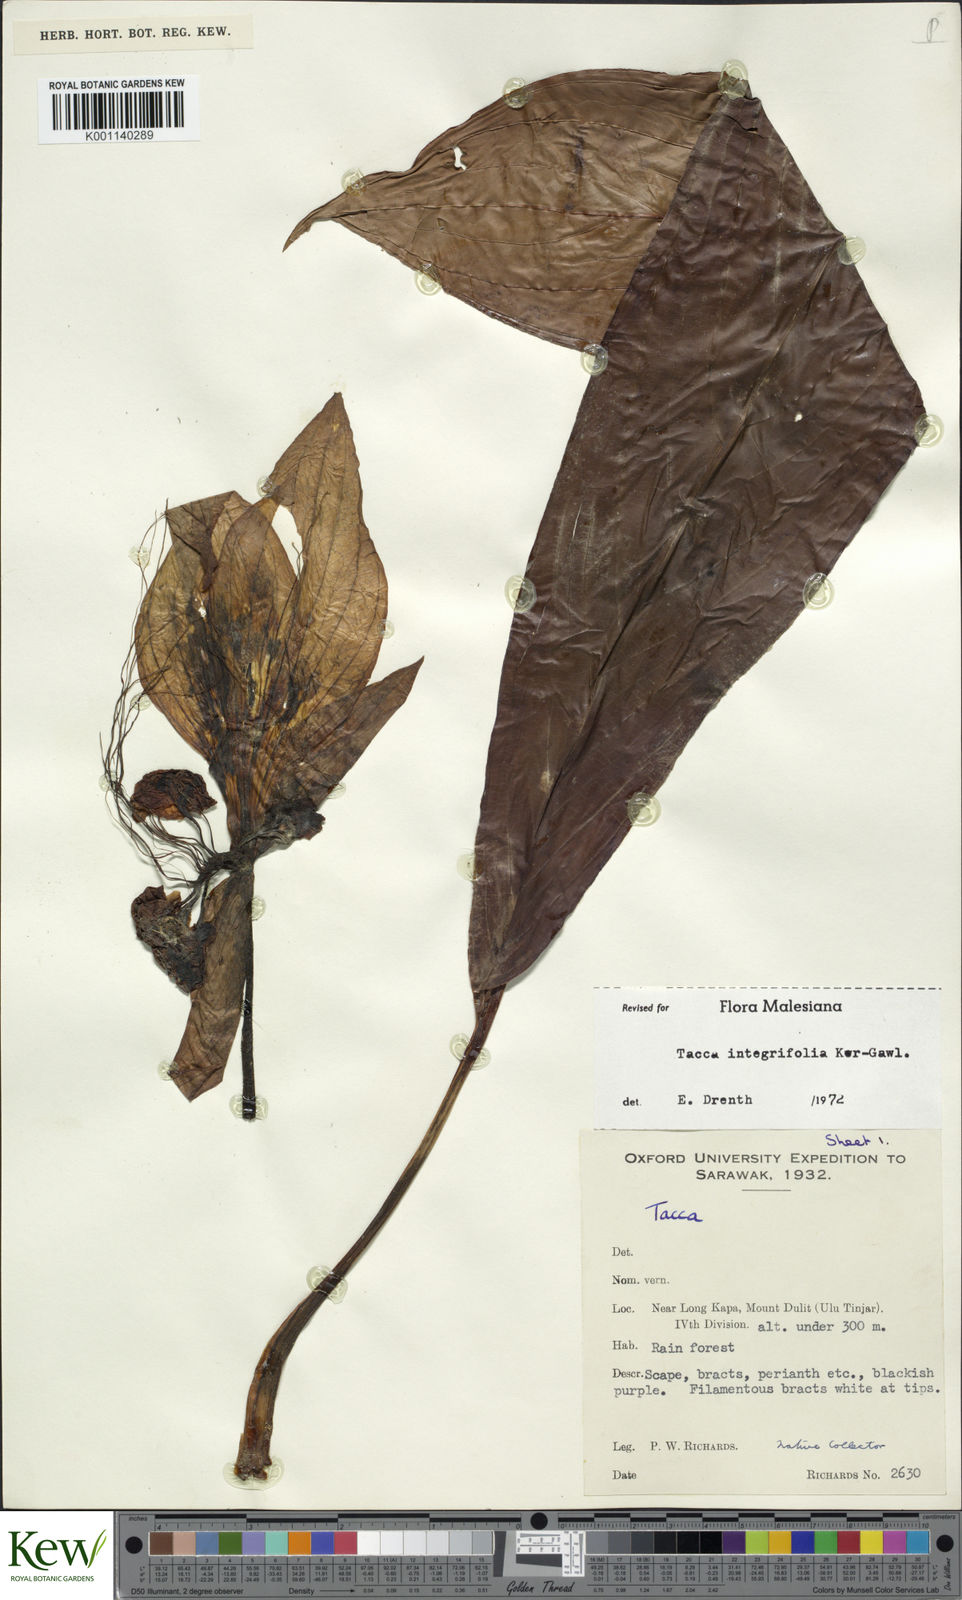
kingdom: Plantae
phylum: Tracheophyta
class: Liliopsida
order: Dioscoreales
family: Dioscoreaceae
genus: Tacca
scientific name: Tacca integrifolia
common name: Batplant
